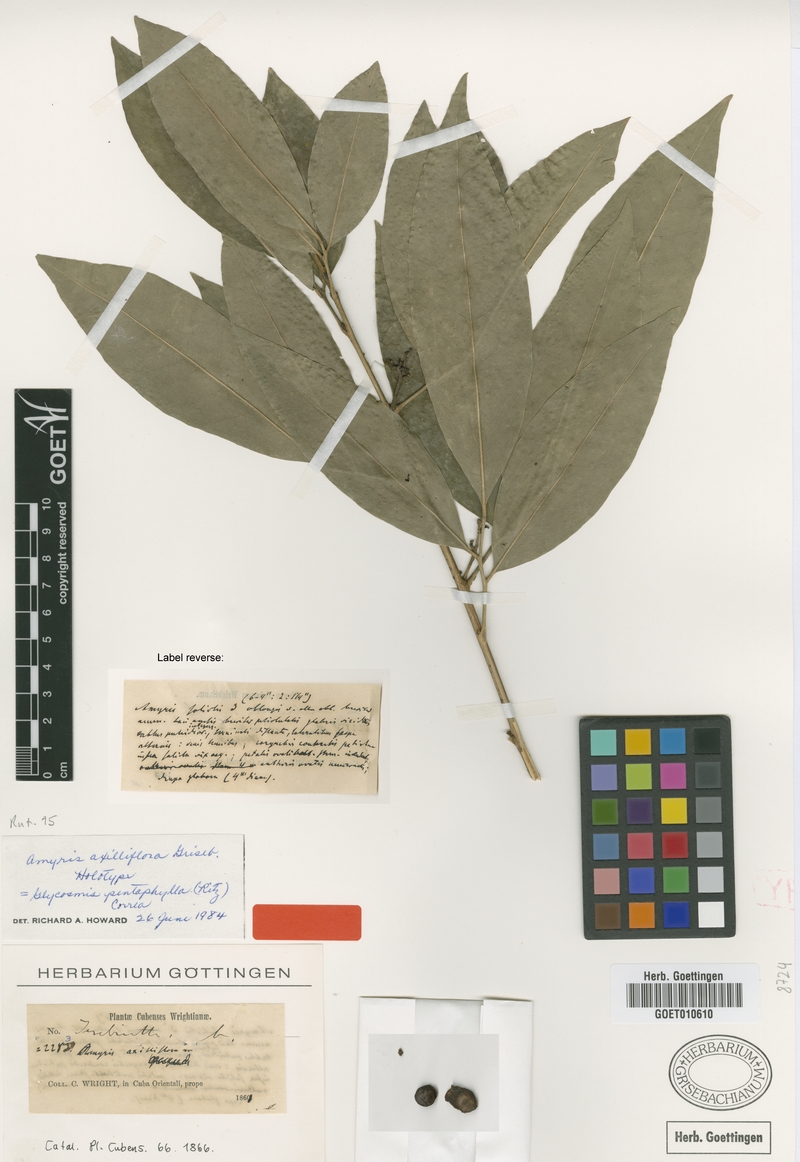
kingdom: Plantae
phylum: Tracheophyta
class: Magnoliopsida
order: Sapindales
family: Rutaceae
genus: Glycosmis
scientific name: Glycosmis pentaphylla
